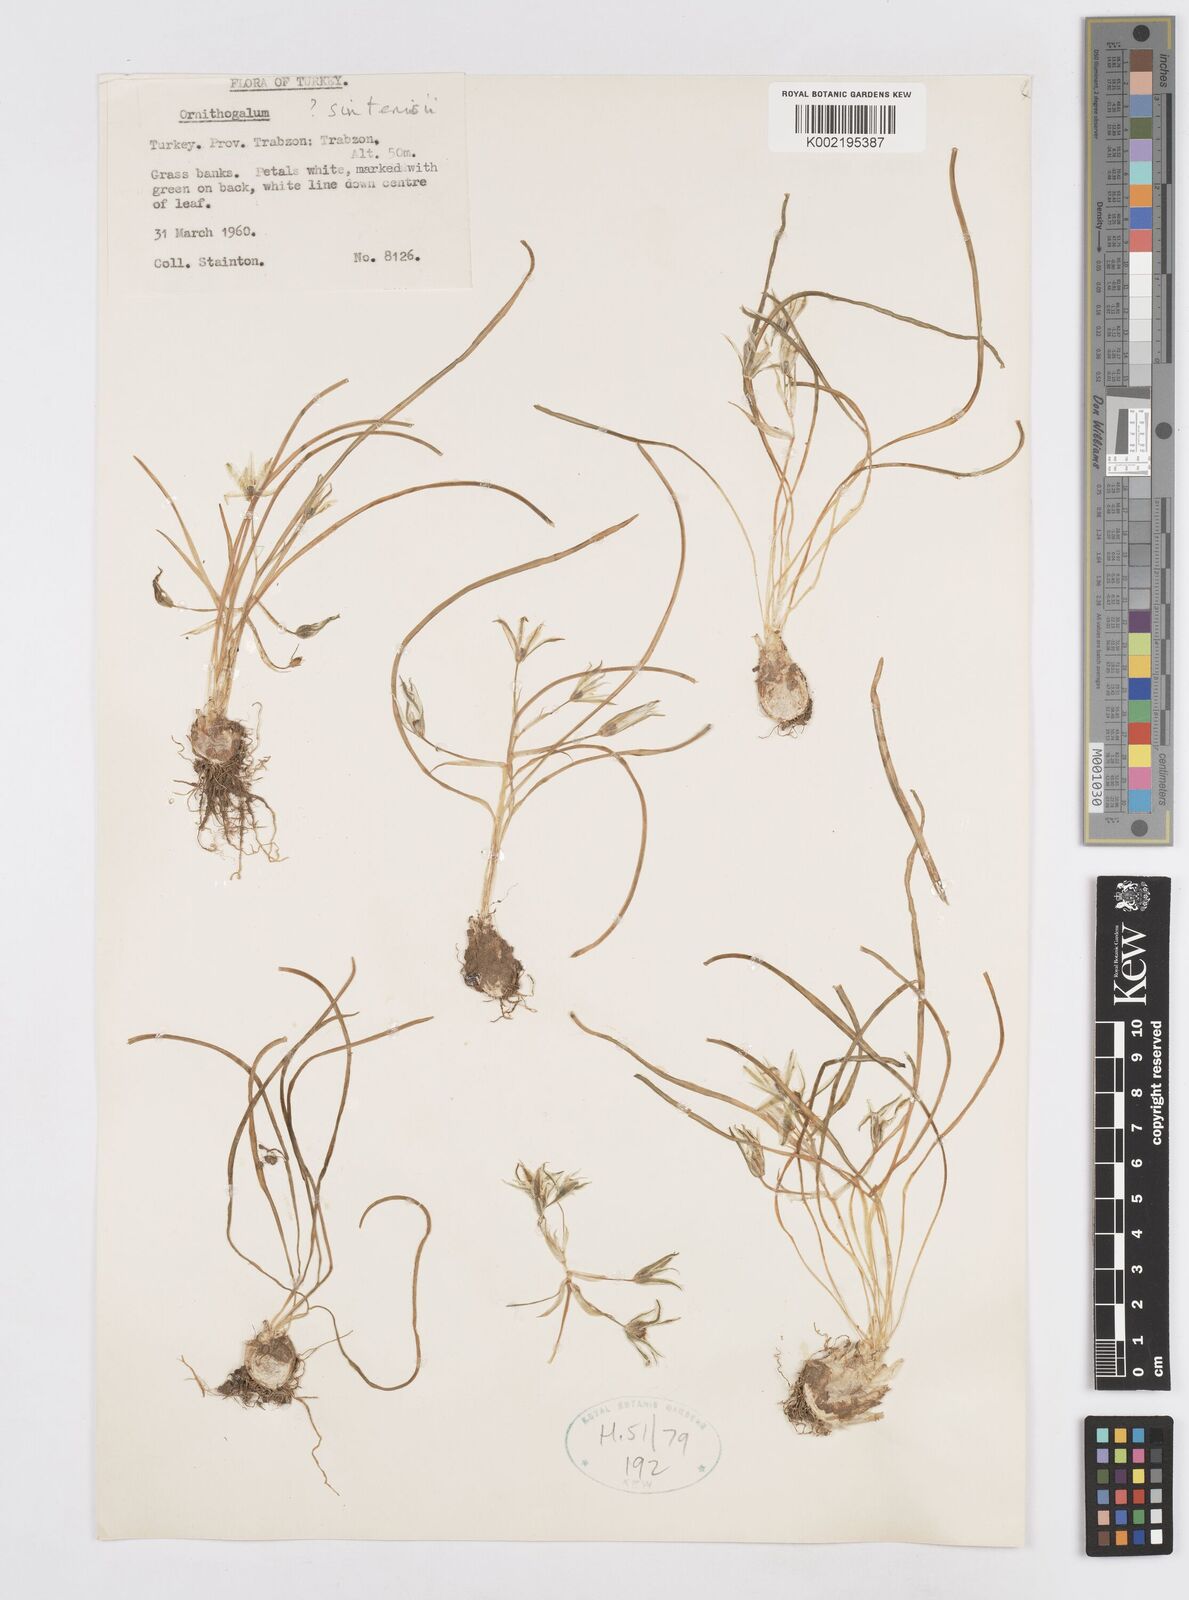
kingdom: Plantae
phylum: Tracheophyta
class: Liliopsida
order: Asparagales
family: Asparagaceae
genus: Ornithogalum
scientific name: Ornithogalum sintenisii
